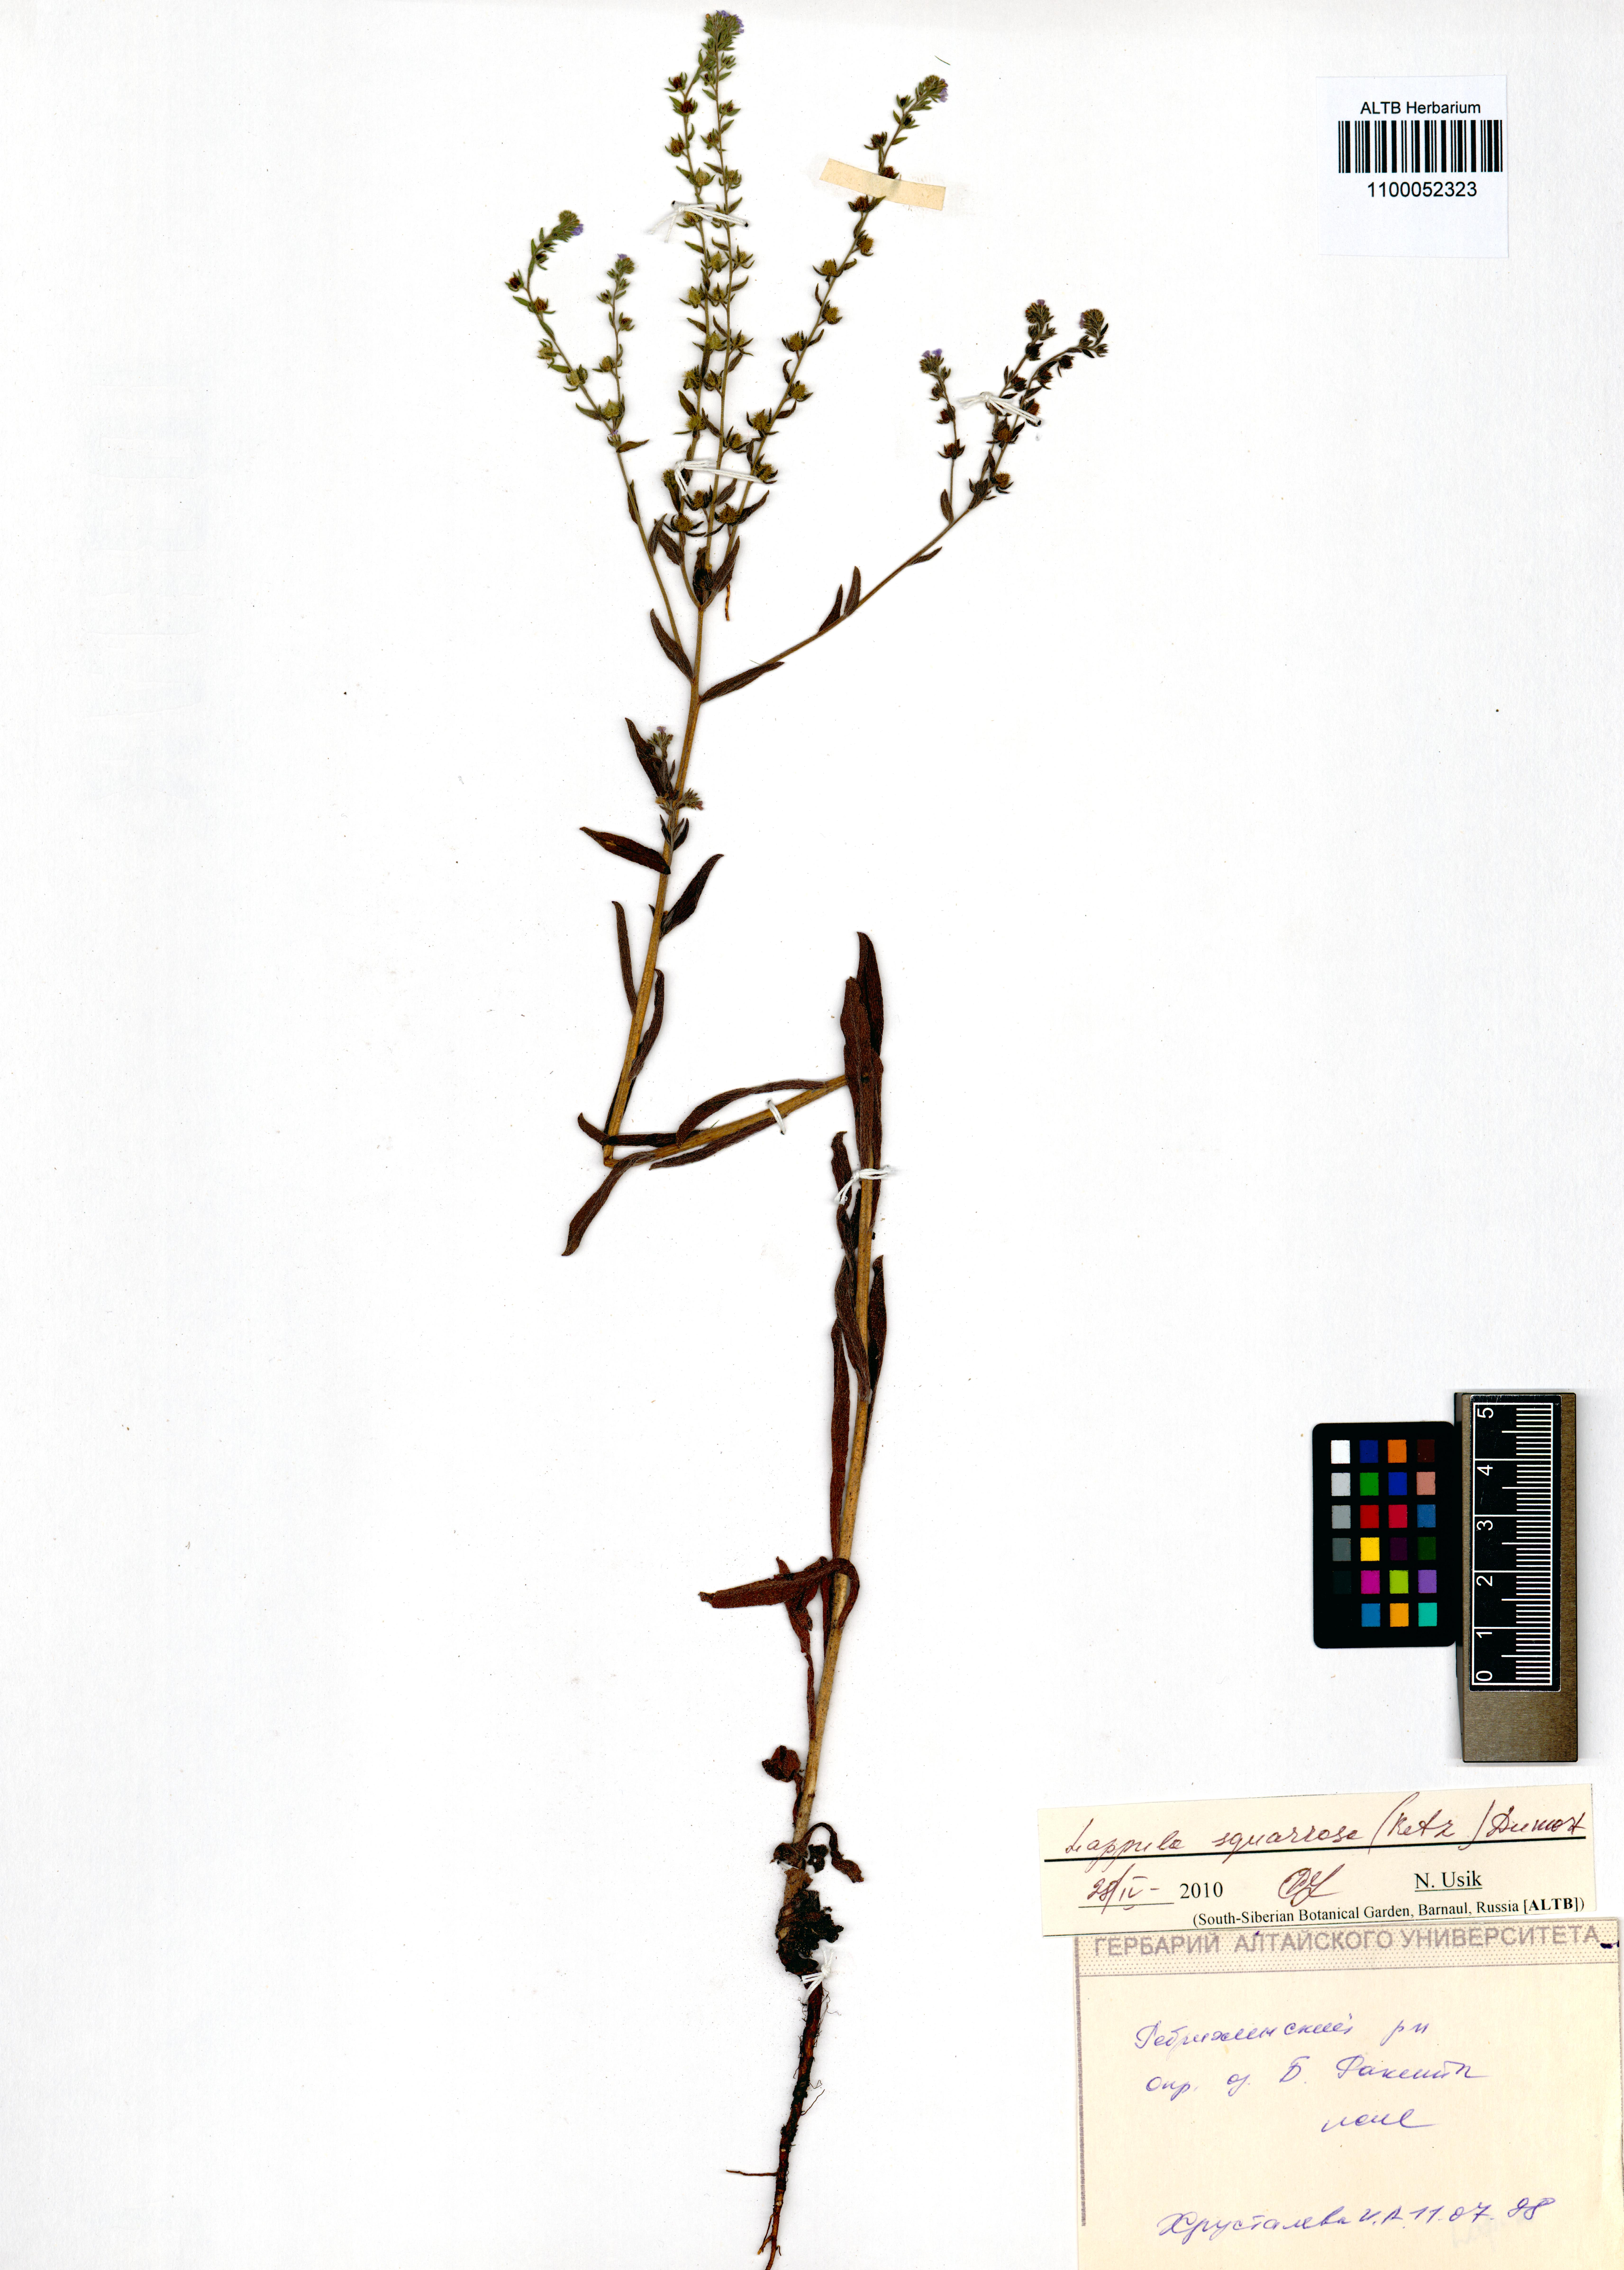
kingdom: Plantae
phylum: Tracheophyta
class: Magnoliopsida
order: Boraginales
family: Boraginaceae
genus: Lappula
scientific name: Lappula squarrosa
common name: European stickseed
